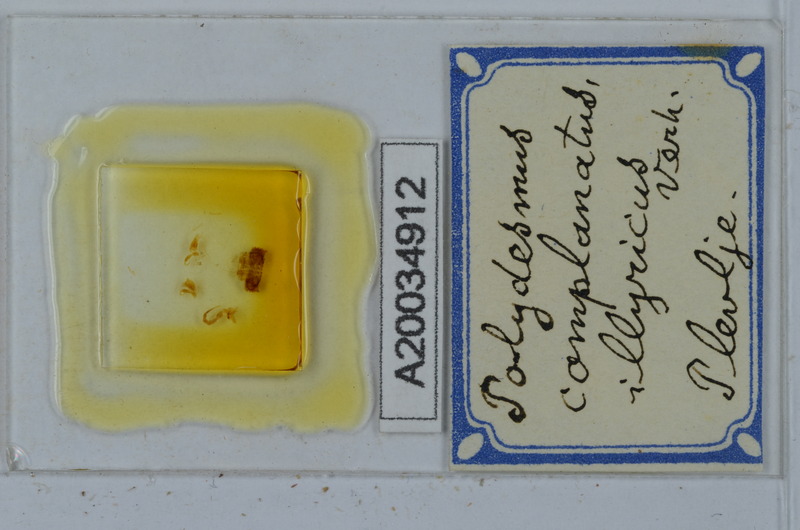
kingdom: Animalia
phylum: Arthropoda
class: Diplopoda
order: Polydesmida
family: Polydesmidae
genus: Polydesmus
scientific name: Polydesmus complanatus
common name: Flat-backed millipede
